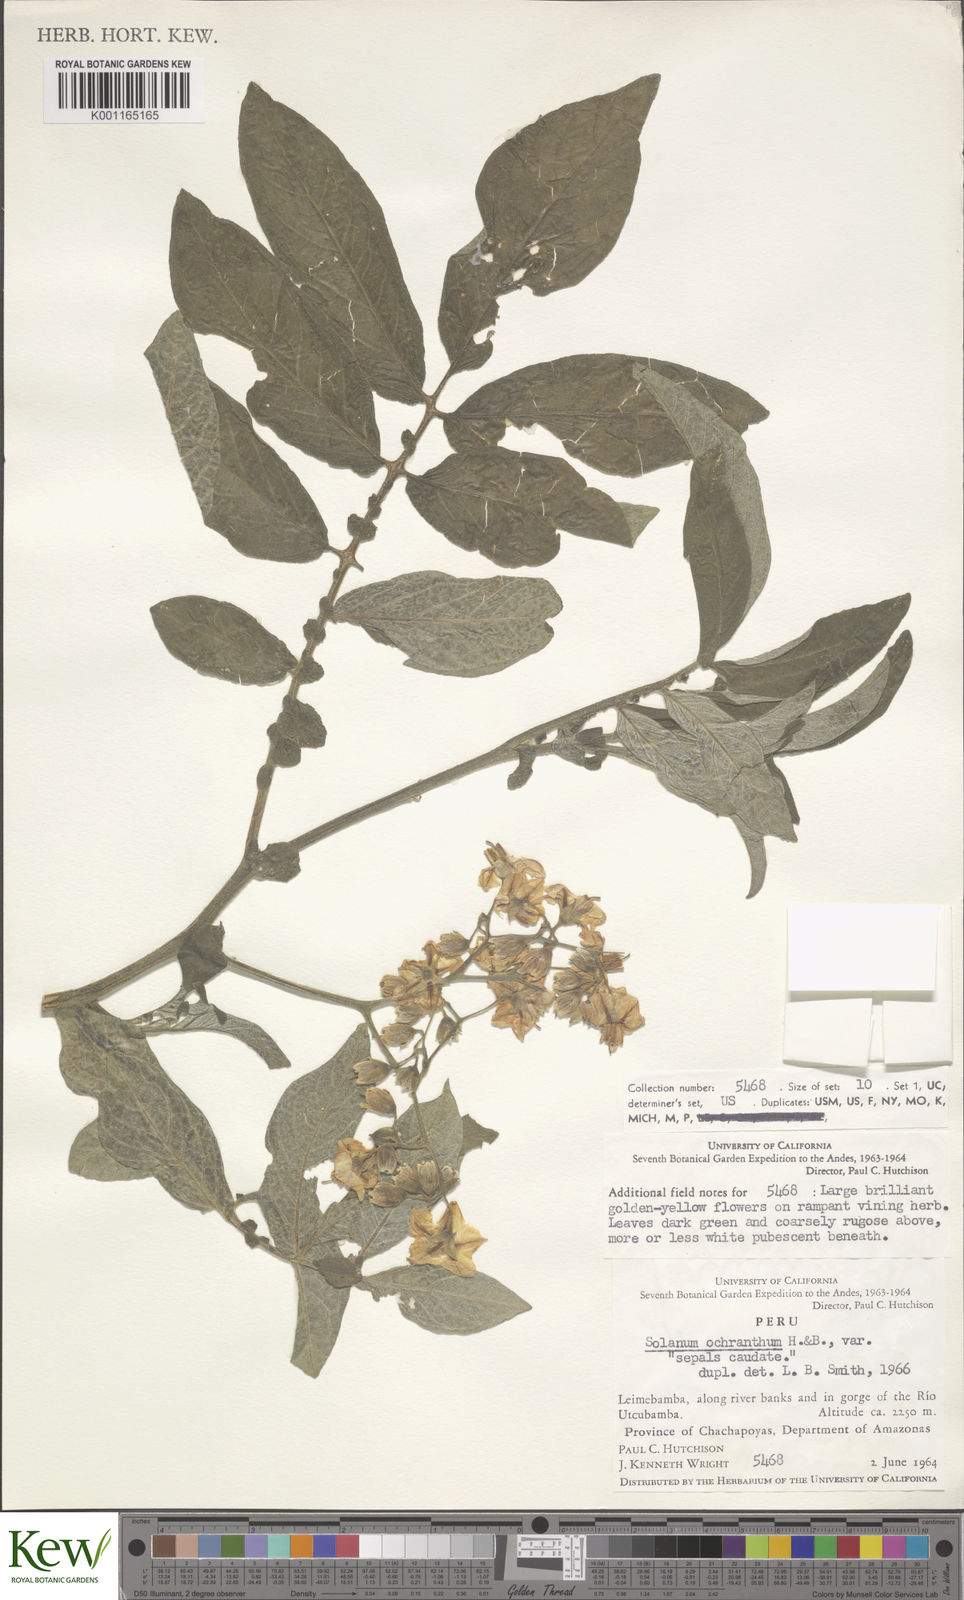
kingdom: Plantae
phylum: Tracheophyta
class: Magnoliopsida
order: Solanales
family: Solanaceae
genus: Solanum
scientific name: Solanum ochranthum
